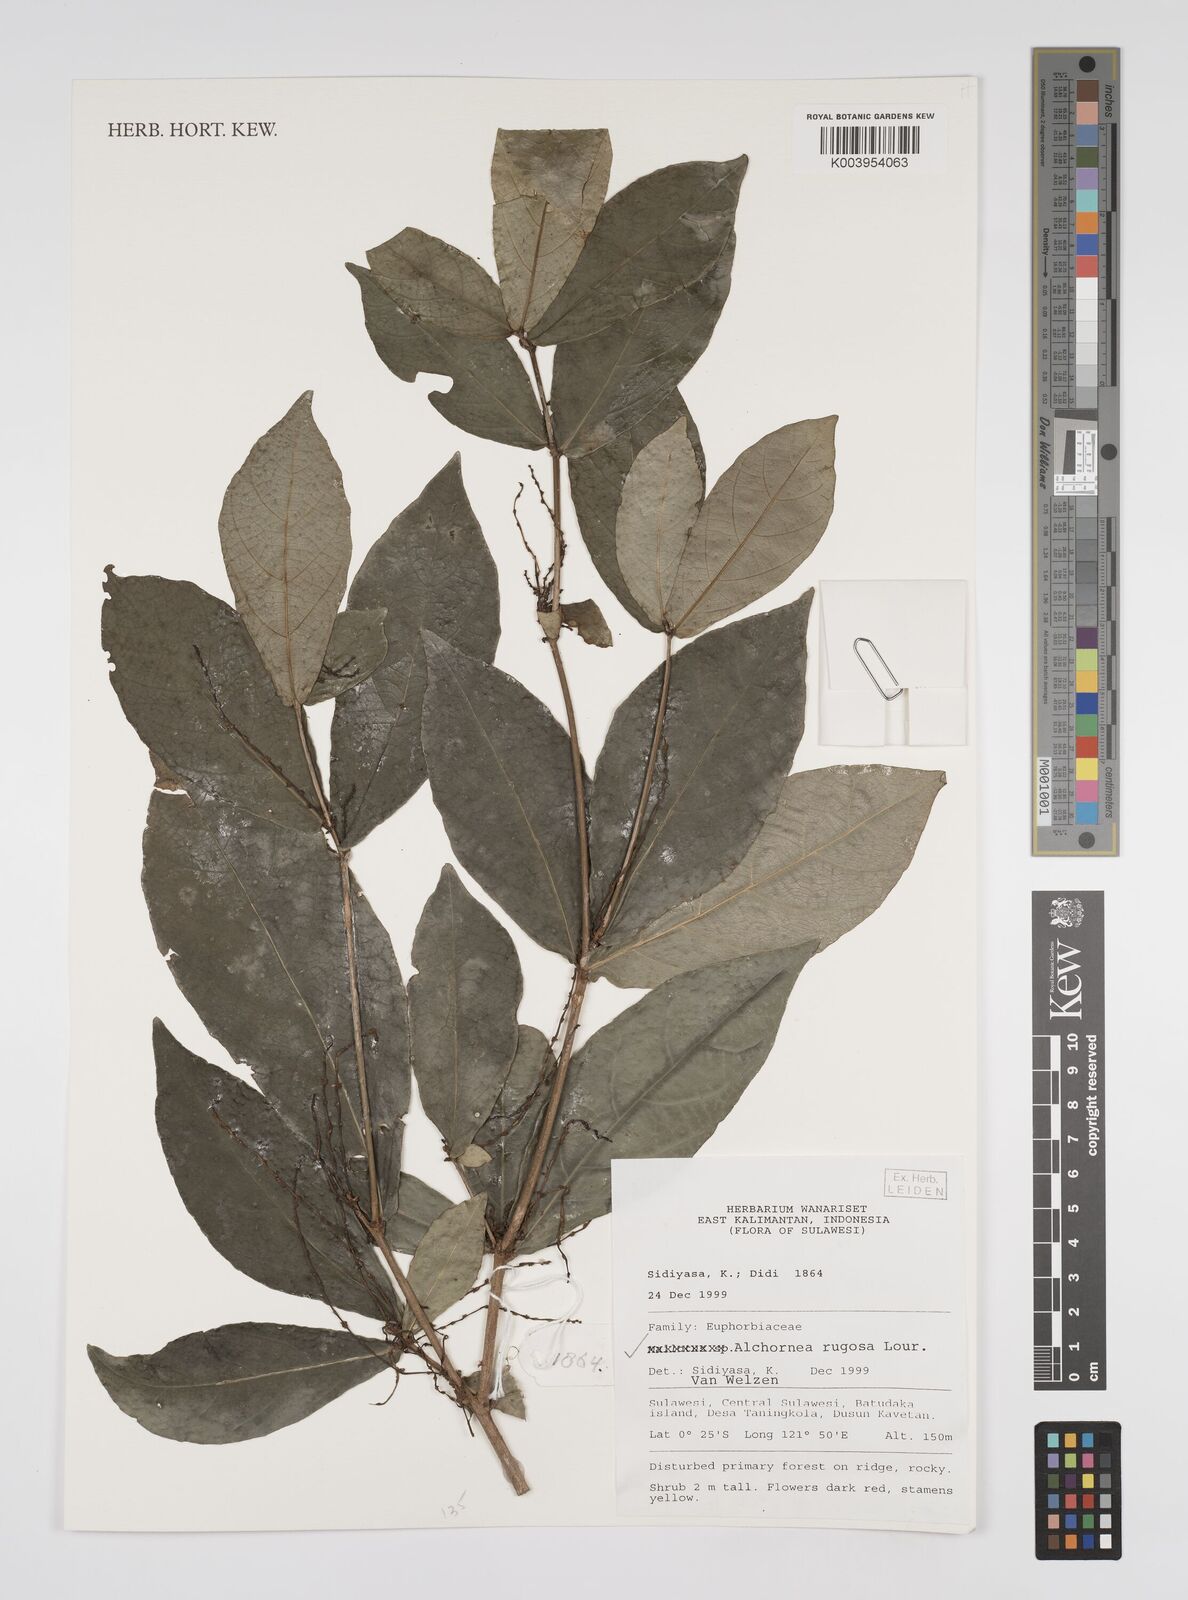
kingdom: Plantae
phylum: Tracheophyta
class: Magnoliopsida
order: Malpighiales
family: Euphorbiaceae
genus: Alchornea
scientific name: Alchornea rugosa
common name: Alchorntree
